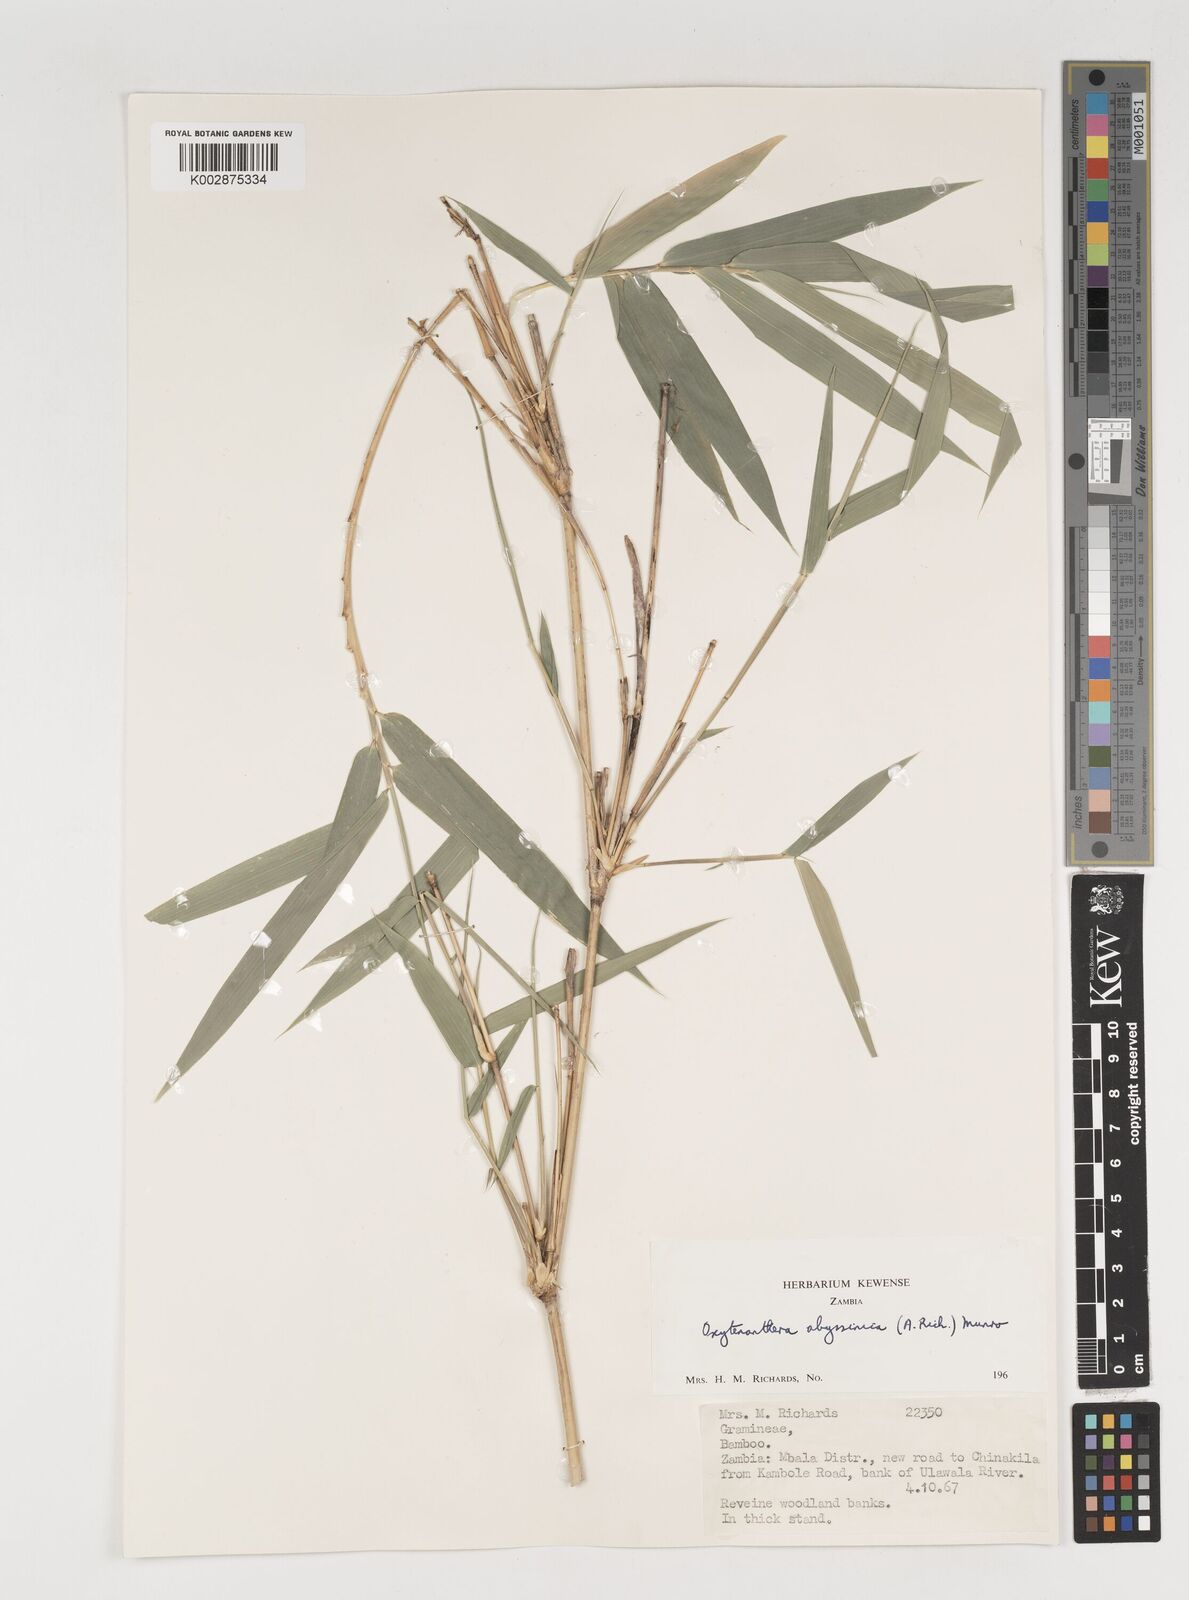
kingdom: Plantae
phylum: Tracheophyta
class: Liliopsida
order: Poales
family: Poaceae
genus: Oxytenanthera
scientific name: Oxytenanthera abyssinica
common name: Wine bamboo
